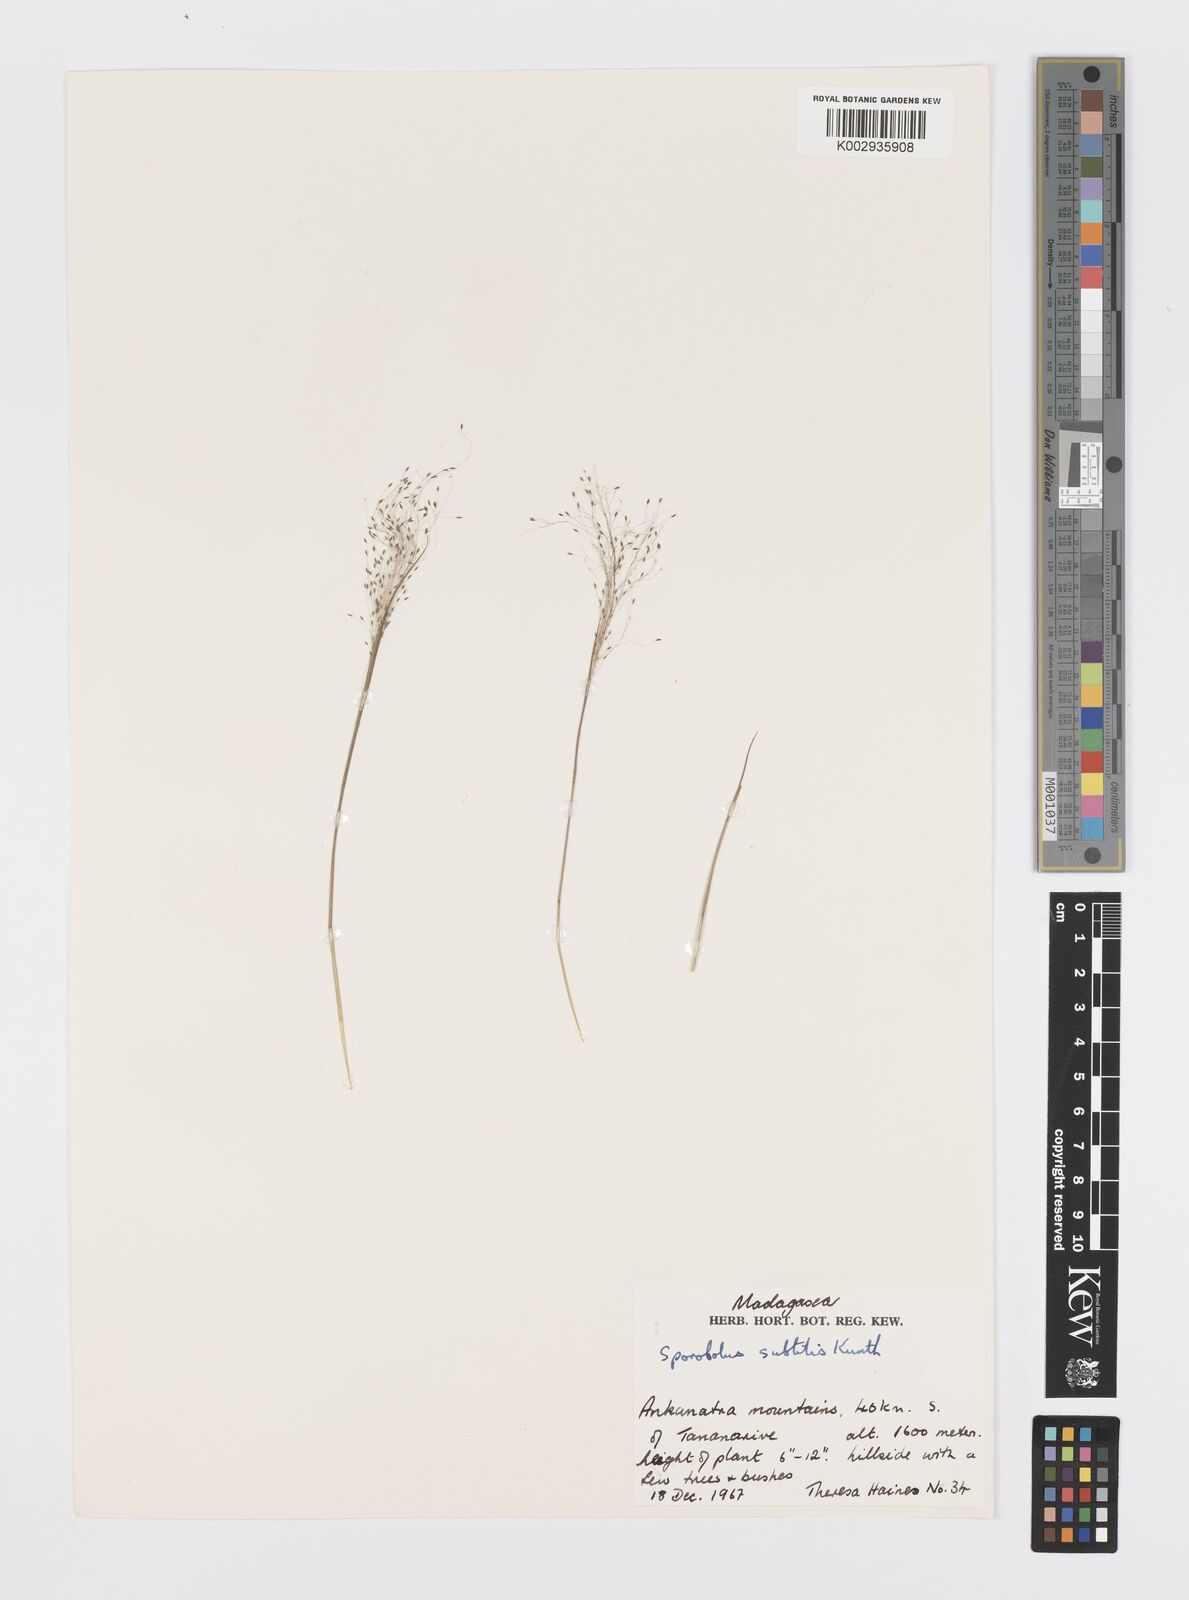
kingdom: Plantae
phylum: Tracheophyta
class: Liliopsida
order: Poales
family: Poaceae
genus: Sporobolus
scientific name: Sporobolus subtilis
